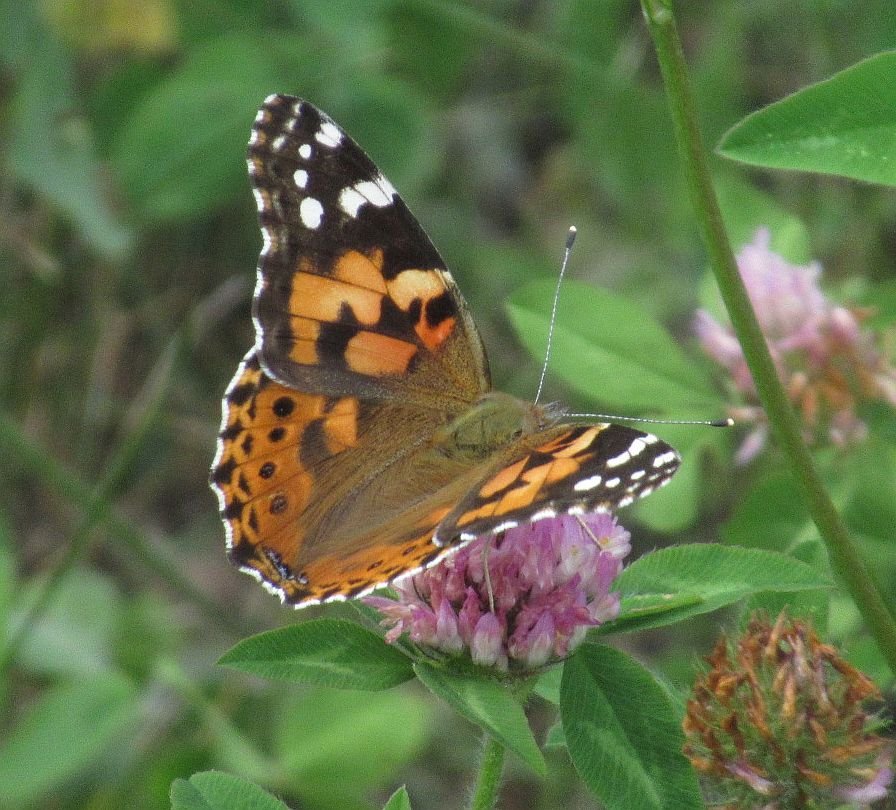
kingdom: Animalia
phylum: Arthropoda
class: Insecta
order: Lepidoptera
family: Nymphalidae
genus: Vanessa
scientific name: Vanessa cardui
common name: Painted Lady
